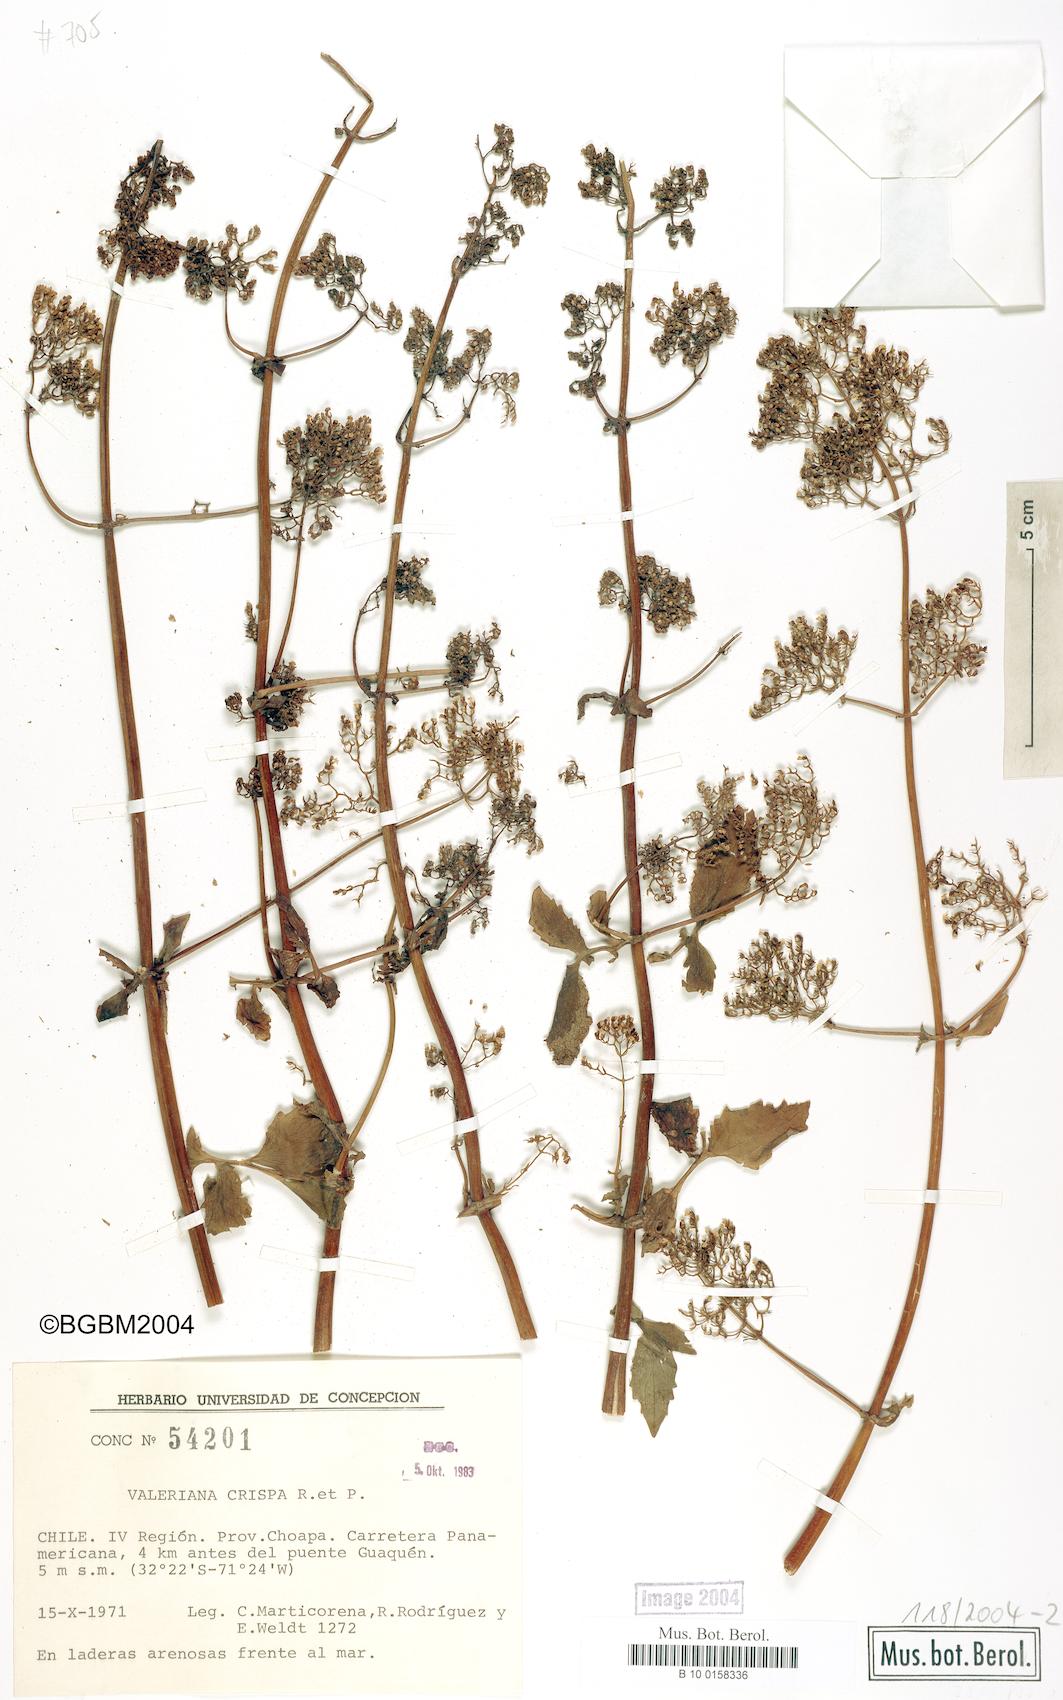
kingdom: Plantae
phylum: Tracheophyta
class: Magnoliopsida
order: Dipsacales
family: Caprifoliaceae
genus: Valeriana
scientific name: Valeriana crispa
